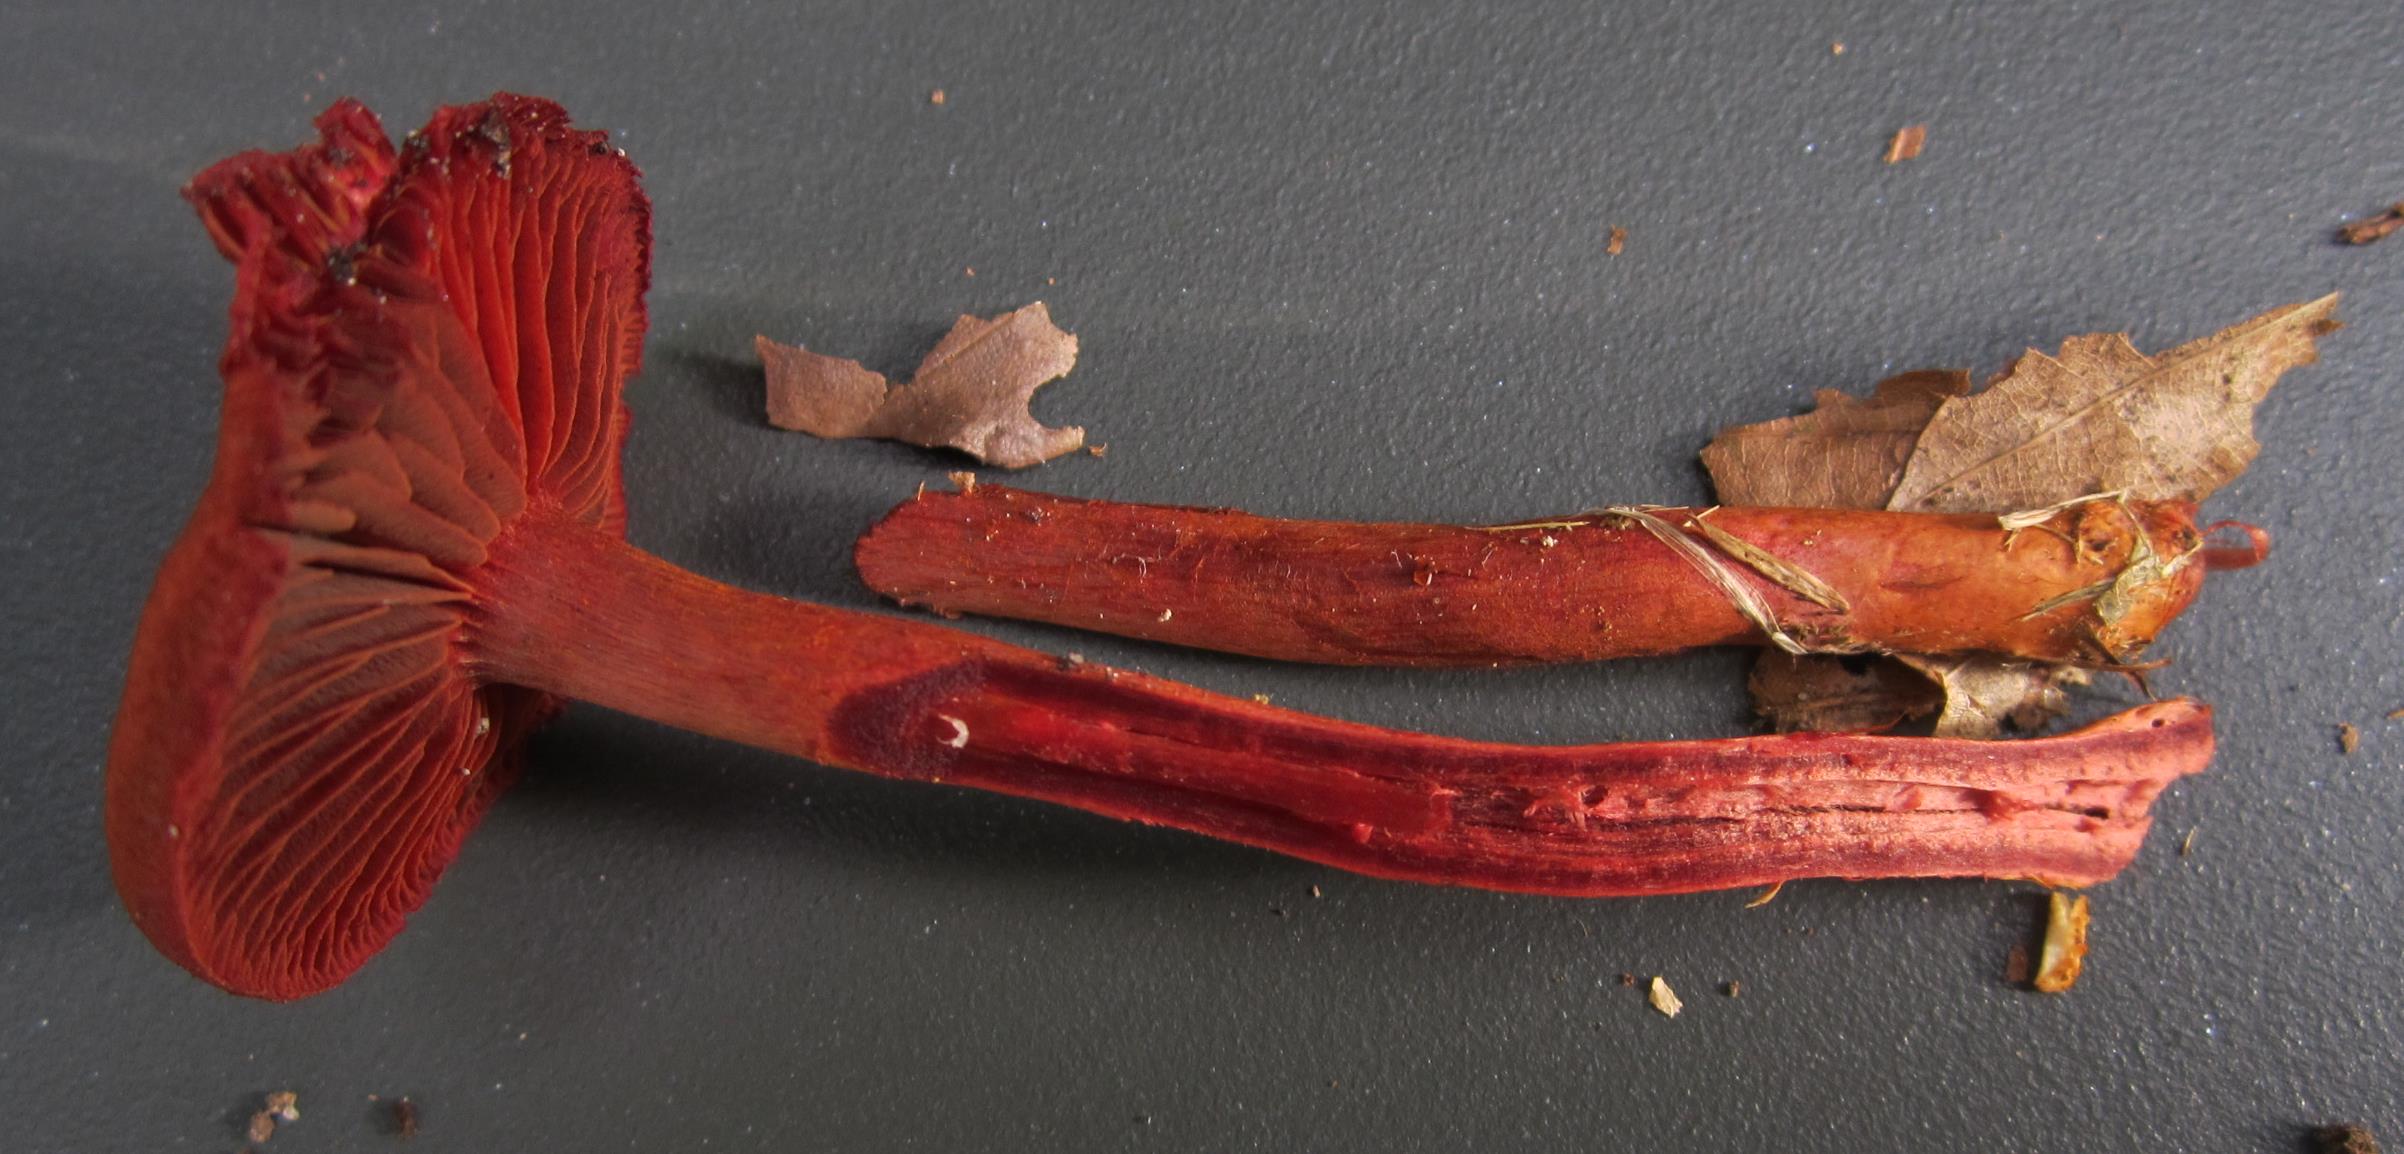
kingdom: Fungi
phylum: Basidiomycota
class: Agaricomycetes
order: Agaricales
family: Cortinariaceae
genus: Cortinarius
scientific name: Cortinarius sanguineus
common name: Bloodred webcap
